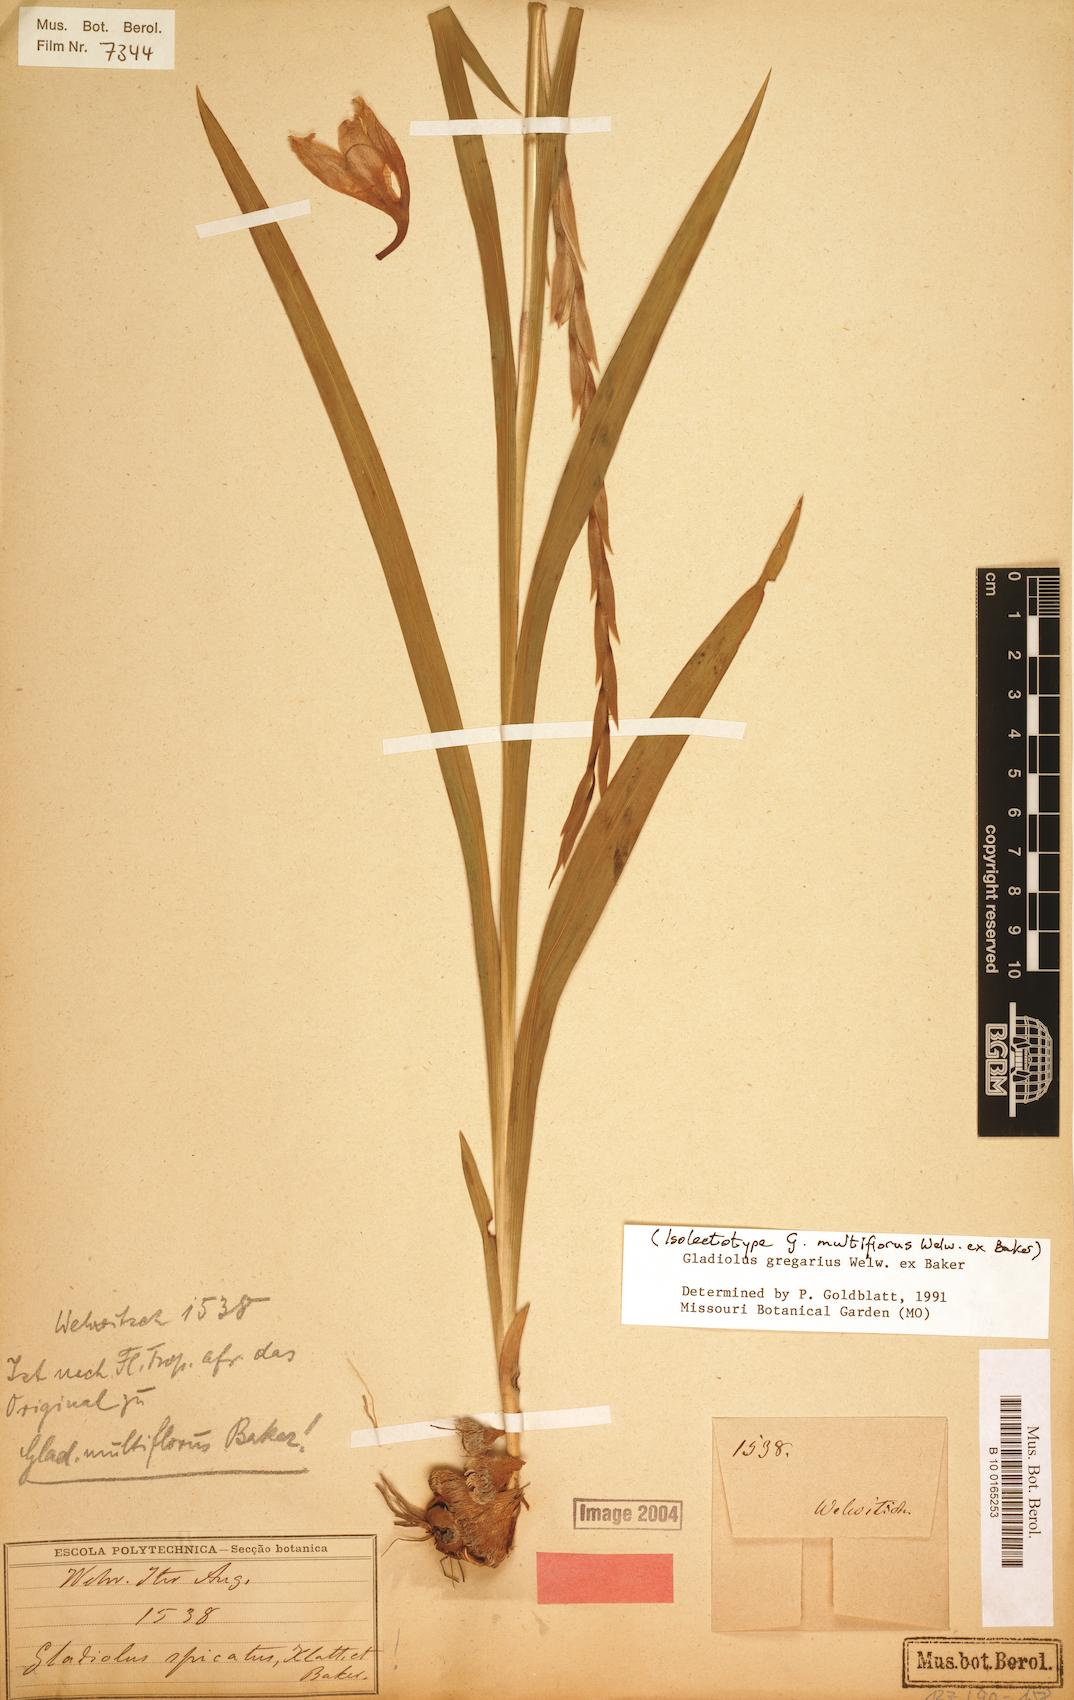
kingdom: Plantae
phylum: Tracheophyta
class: Liliopsida
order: Asparagales
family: Iridaceae
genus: Gladiolus
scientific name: Gladiolus gregarius
